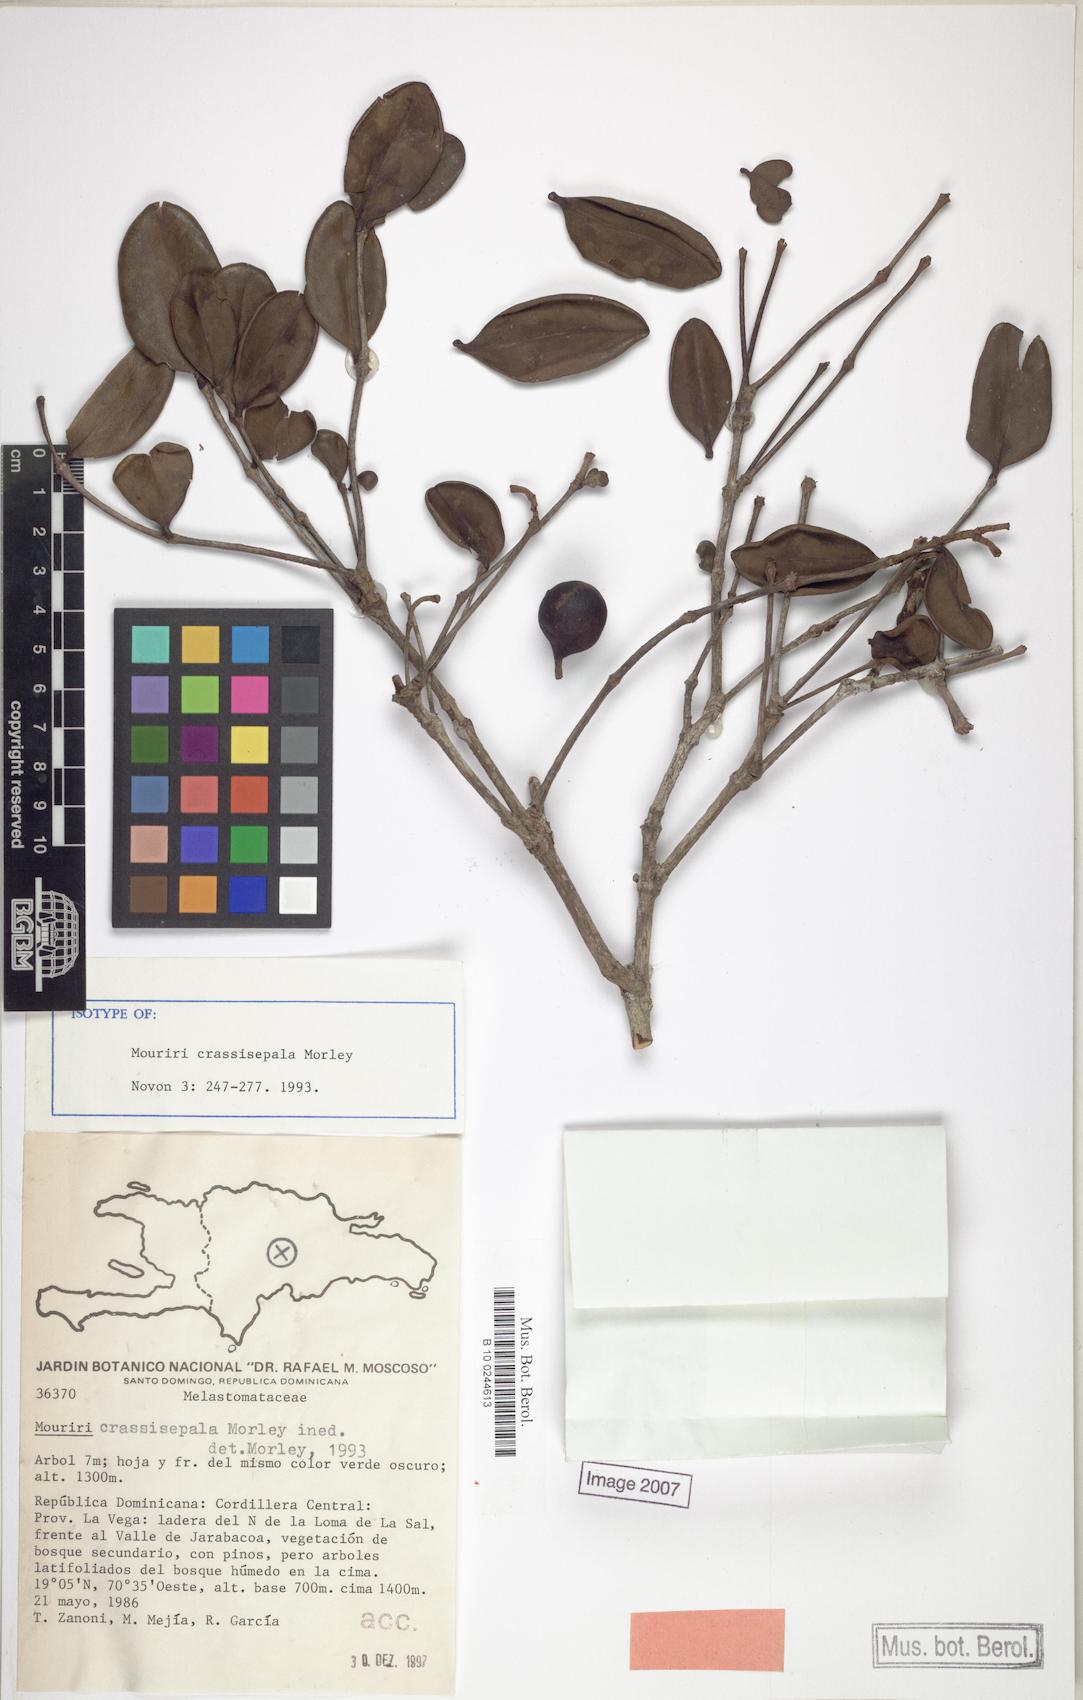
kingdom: Plantae
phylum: Tracheophyta
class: Magnoliopsida
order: Myrtales
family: Melastomataceae
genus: Mouriri
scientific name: Mouriri crassisepala
